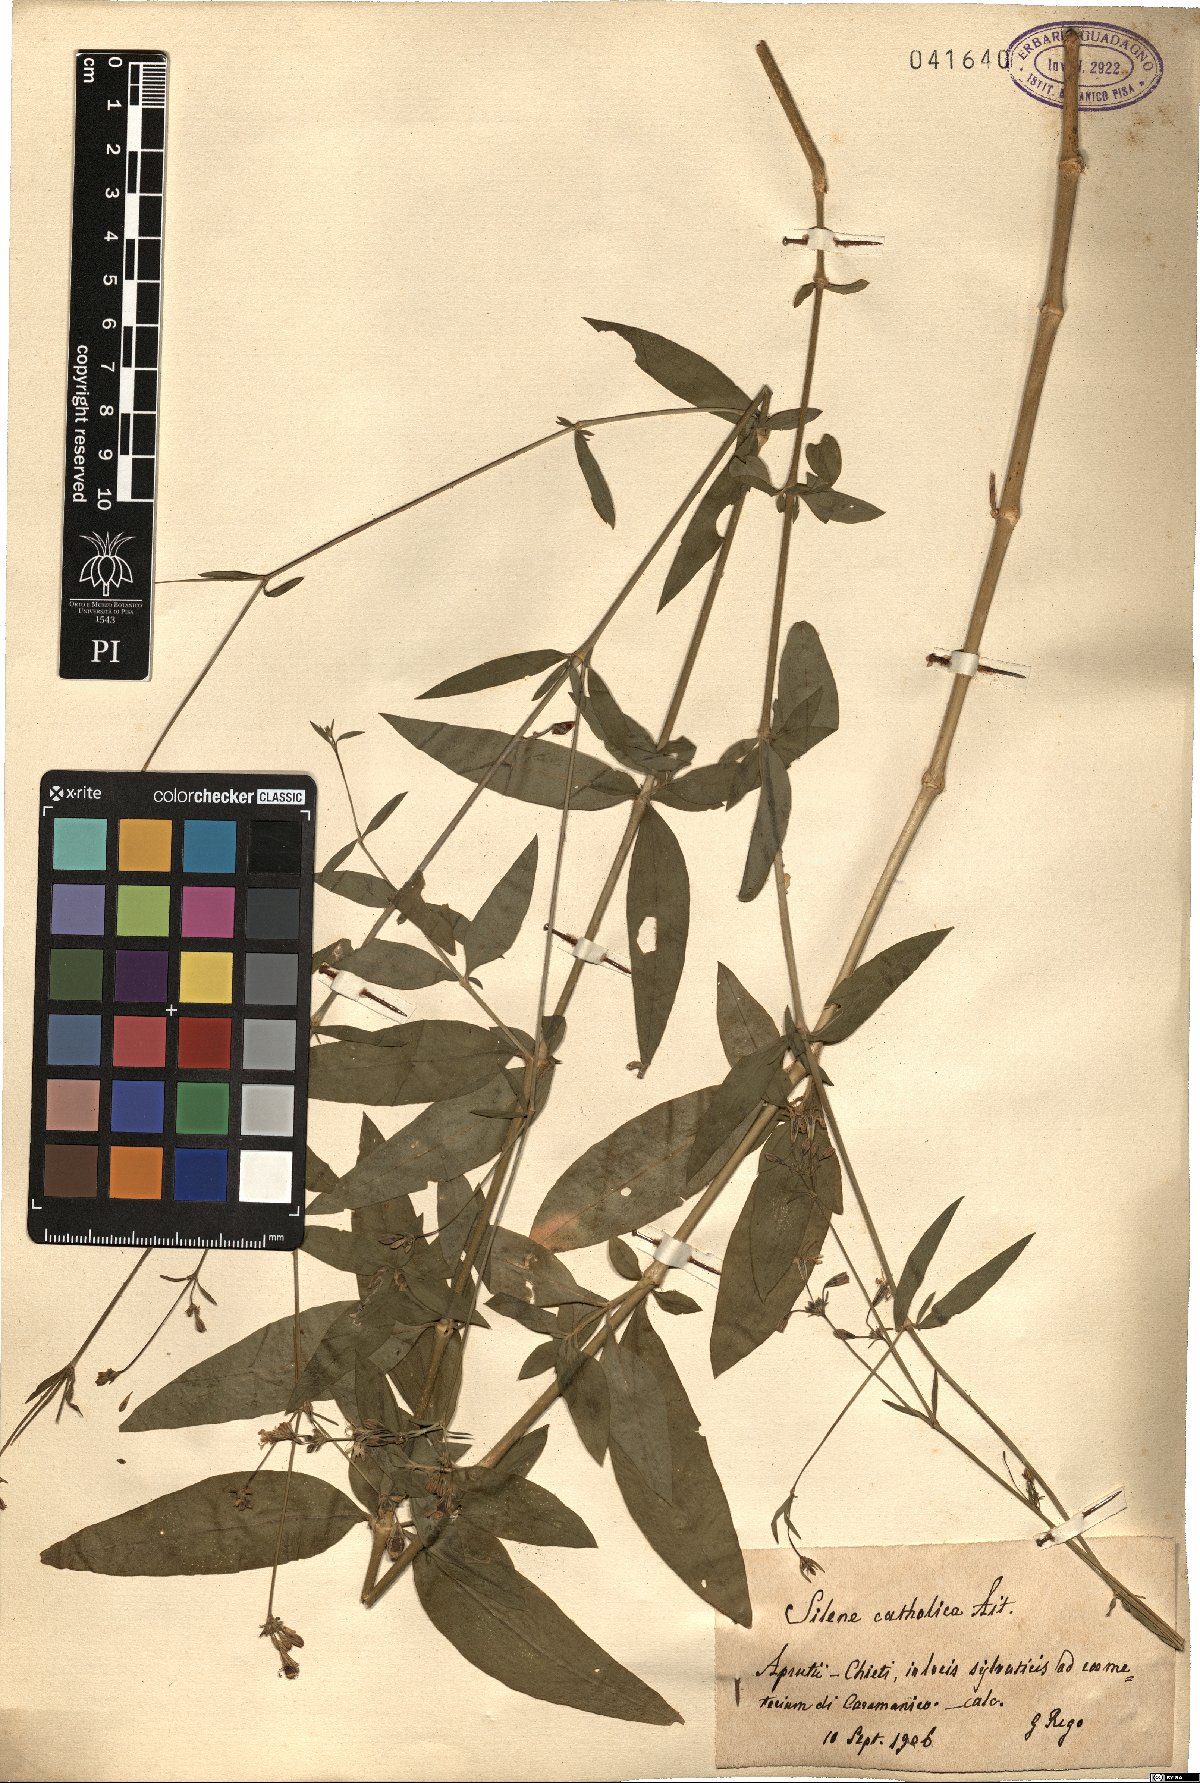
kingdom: Plantae
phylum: Tracheophyta
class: Magnoliopsida
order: Caryophyllales
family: Caryophyllaceae
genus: Silene
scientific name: Silene catholica
